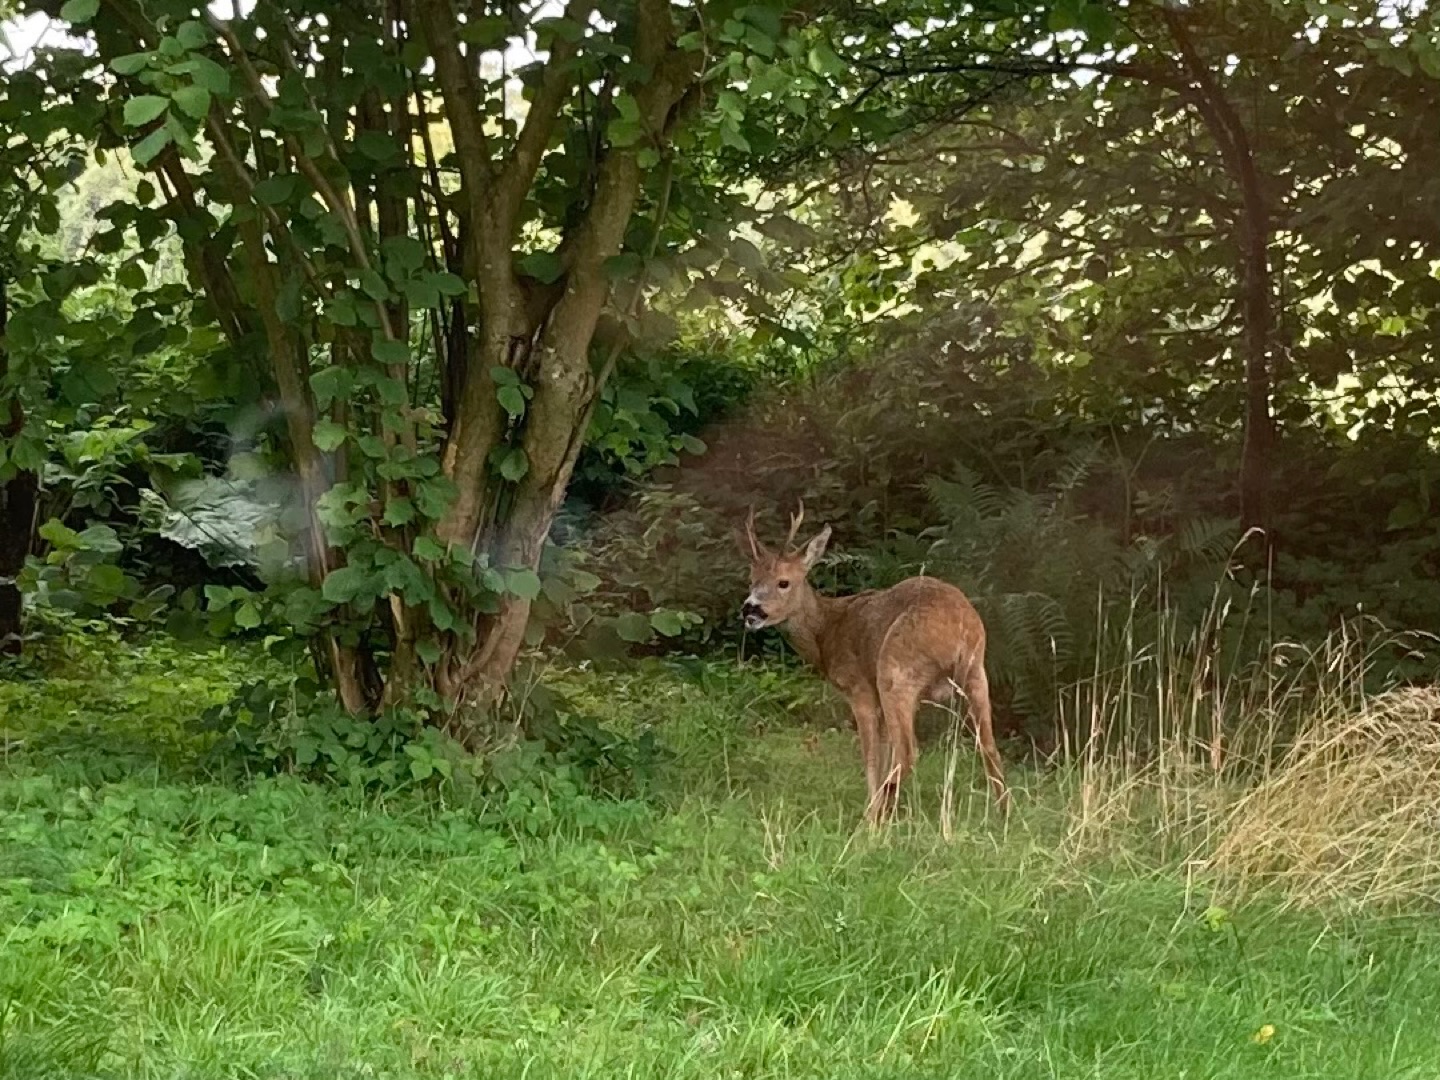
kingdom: Animalia
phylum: Chordata
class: Mammalia
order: Artiodactyla
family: Cervidae
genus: Capreolus
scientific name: Capreolus capreolus
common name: Rådyr
